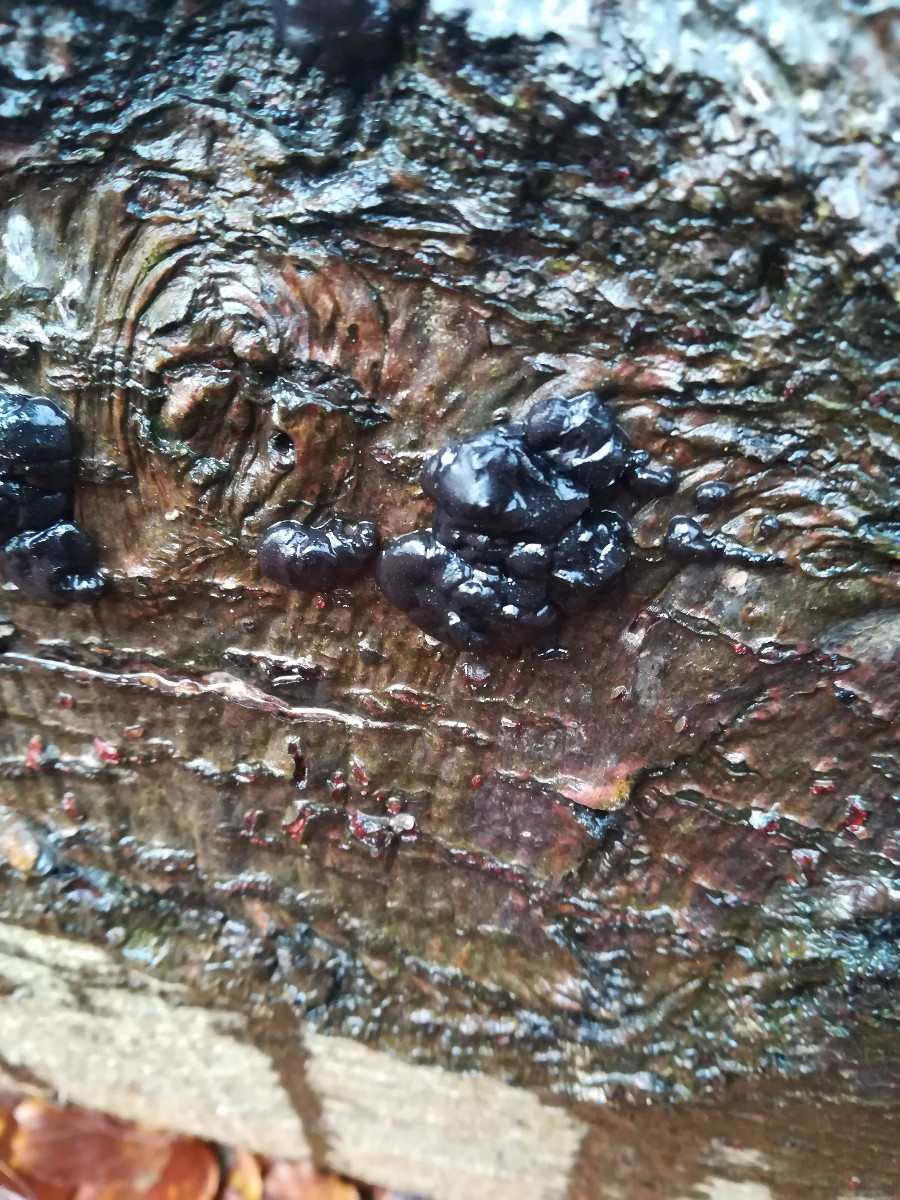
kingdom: Fungi
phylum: Basidiomycota
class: Agaricomycetes
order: Auriculariales
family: Auriculariaceae
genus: Exidia
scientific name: Exidia nigricans
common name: almindelig bævretop
